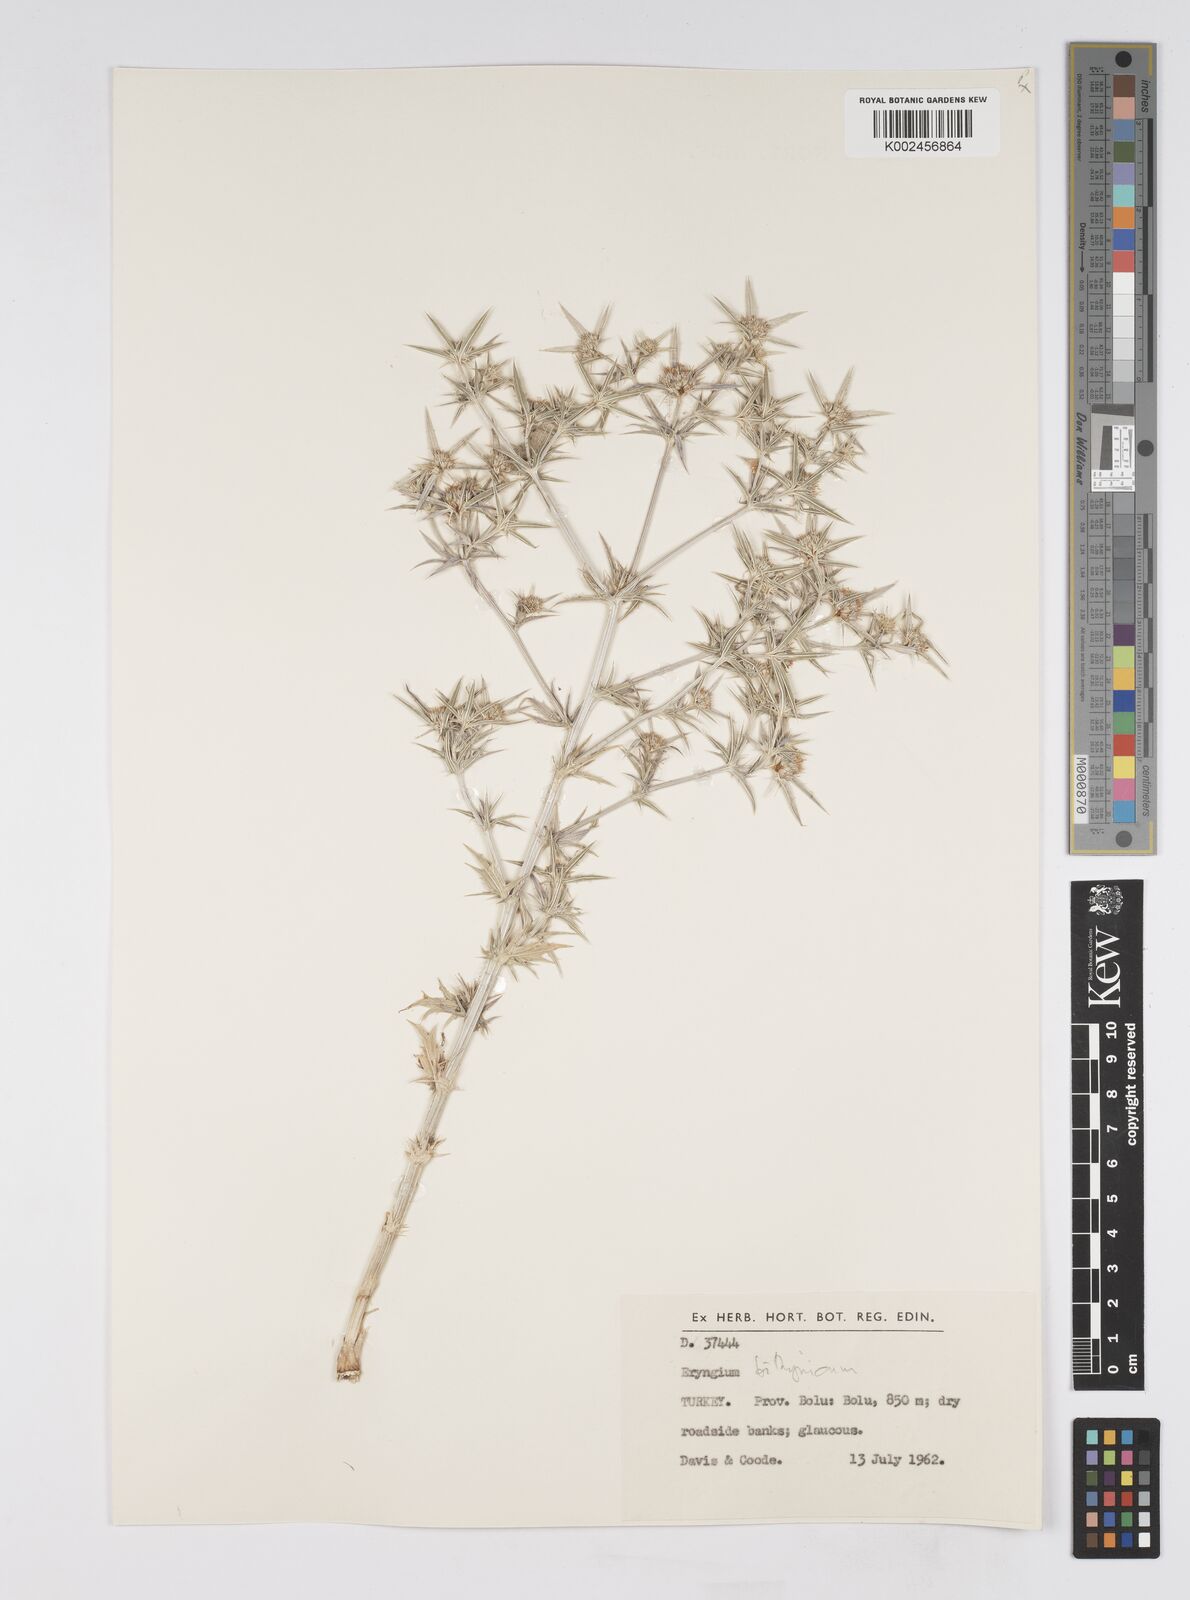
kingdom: Plantae
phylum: Tracheophyta
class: Magnoliopsida
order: Apiales
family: Apiaceae
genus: Eryngium
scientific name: Eryngium bithynicum
